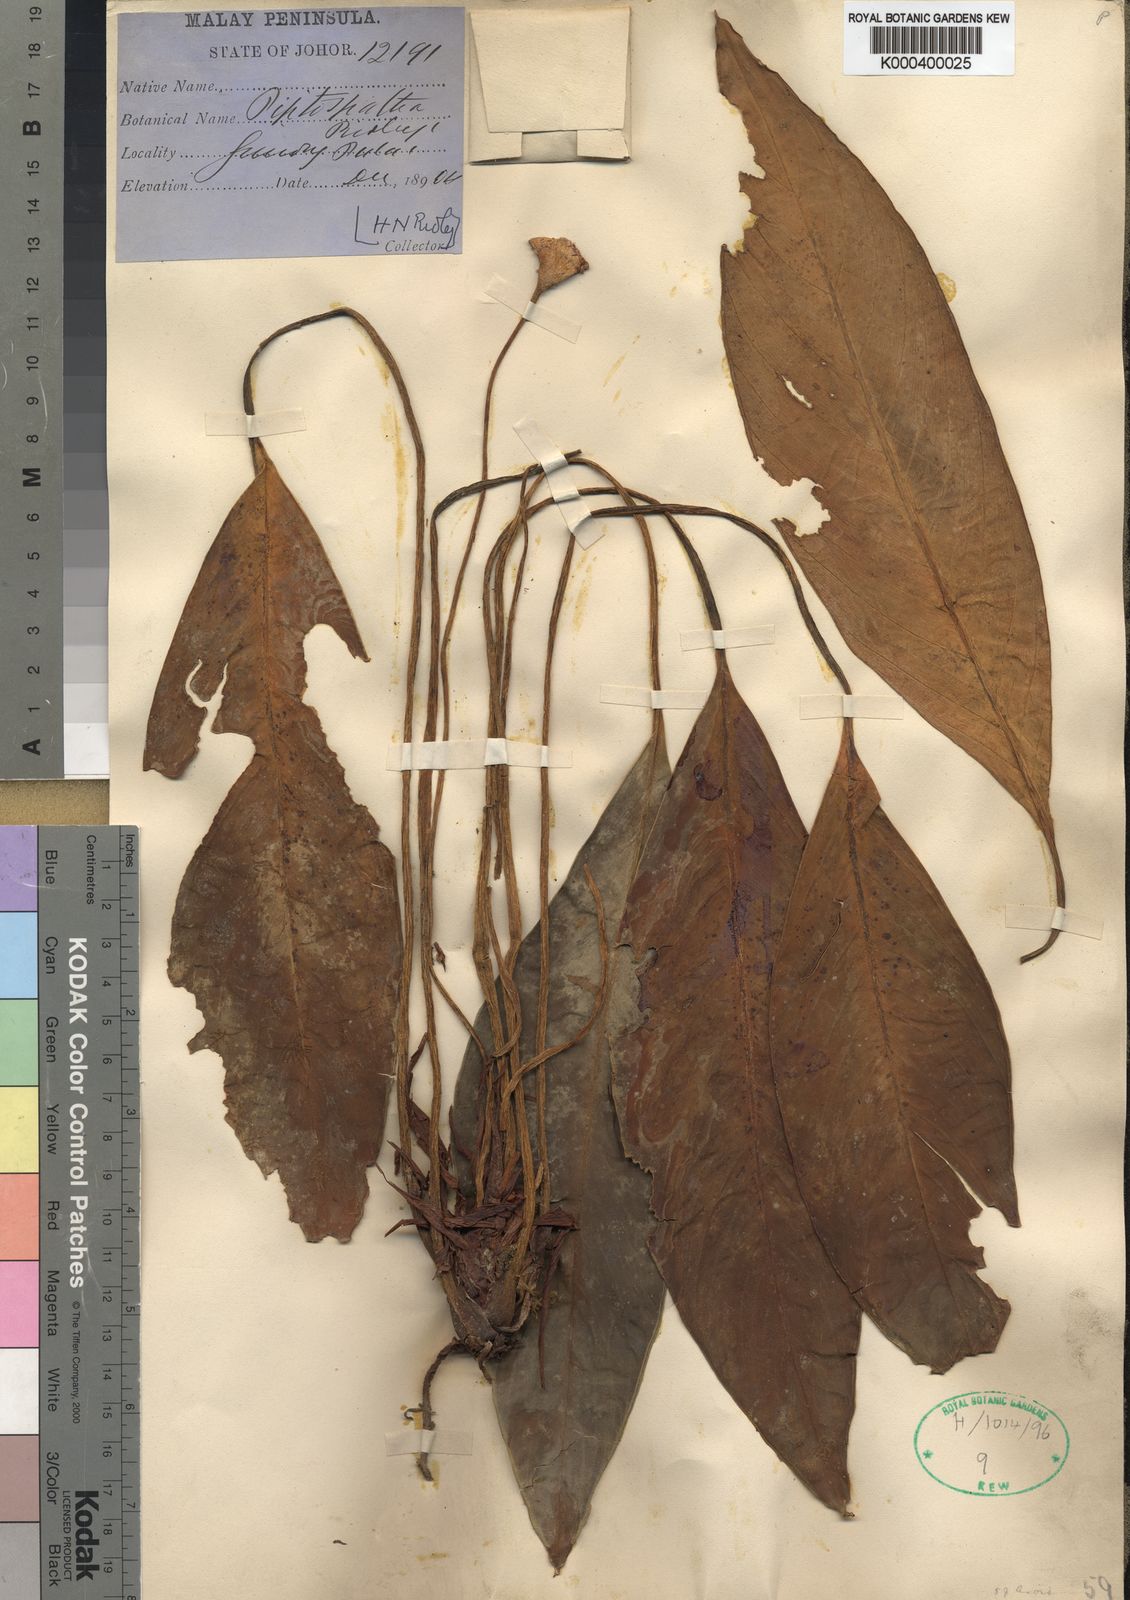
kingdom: Plantae
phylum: Tracheophyta
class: Liliopsida
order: Alismatales
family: Araceae
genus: Kiewia
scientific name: Kiewia ridleyi
